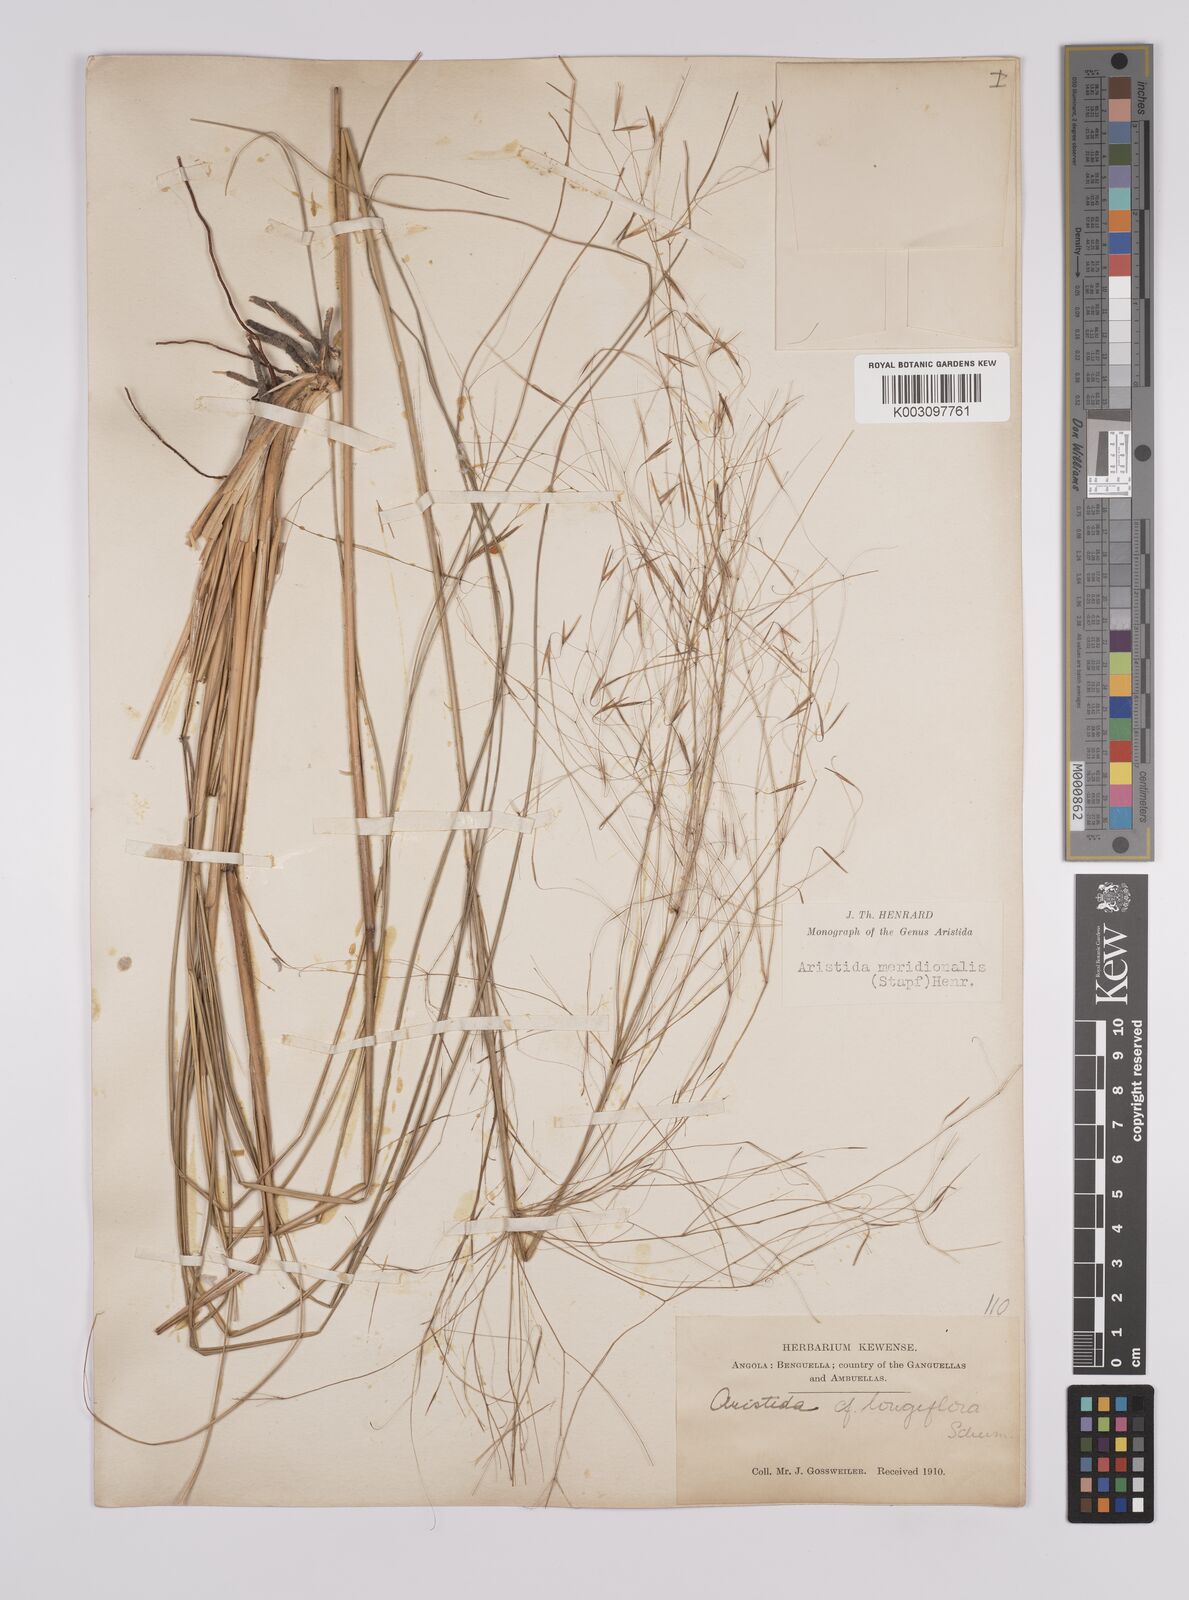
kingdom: Plantae
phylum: Tracheophyta
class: Liliopsida
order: Poales
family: Poaceae
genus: Aristida
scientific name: Aristida meridionalis
